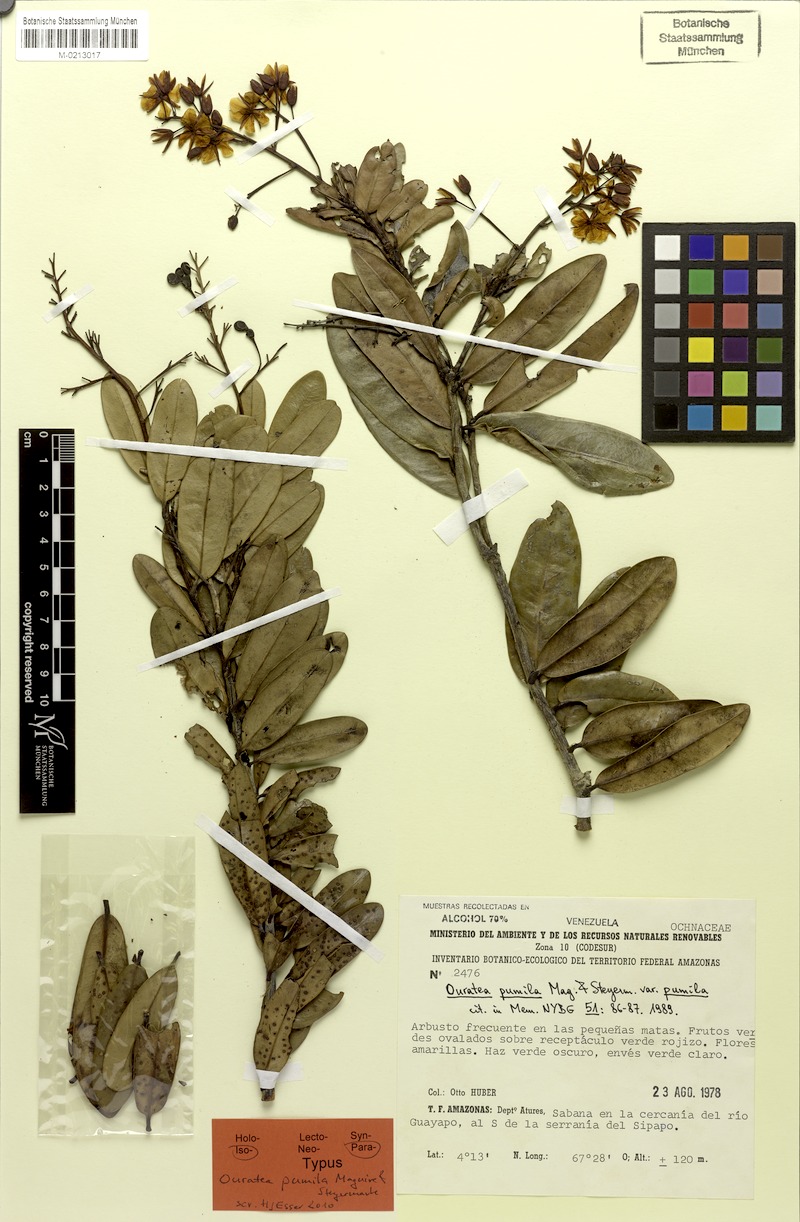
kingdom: Plantae
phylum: Tracheophyta
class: Magnoliopsida
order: Malpighiales
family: Ochnaceae
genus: Ouratea
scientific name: Ouratea aquatica
